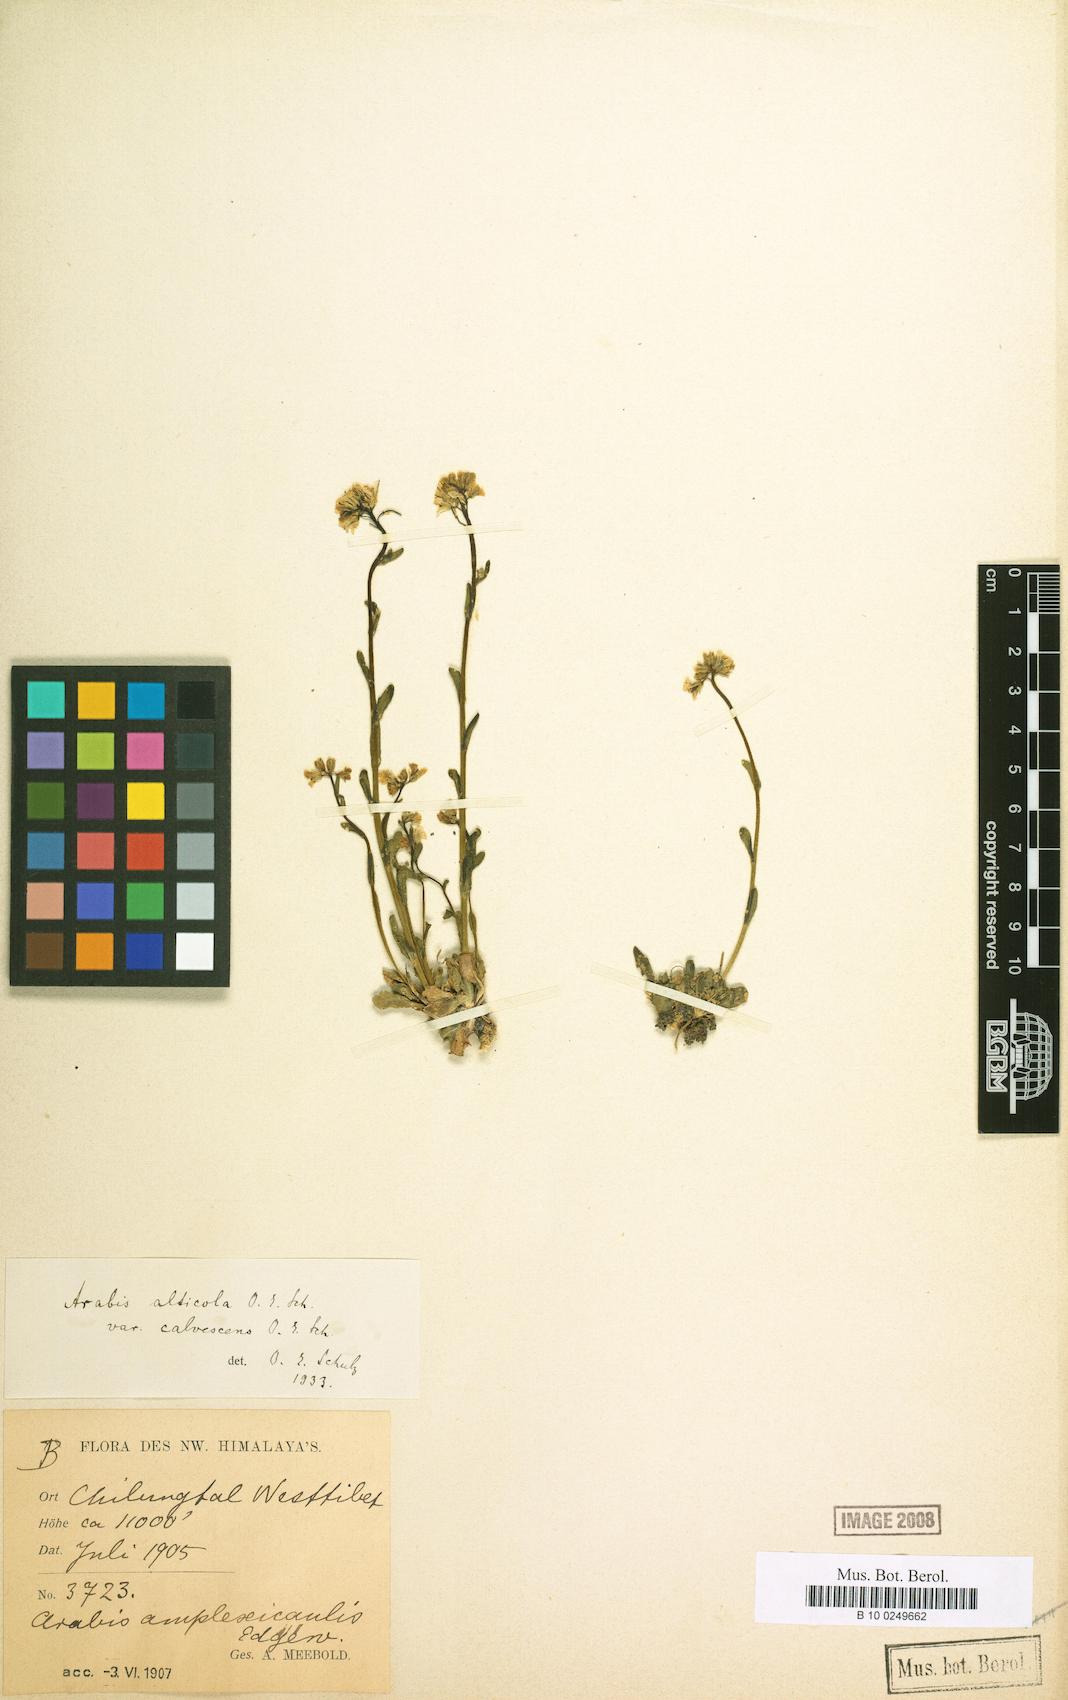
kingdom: Plantae
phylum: Tracheophyta
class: Magnoliopsida
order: Brassicales
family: Brassicaceae
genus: Arabis
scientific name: Arabis amplexicaulis
